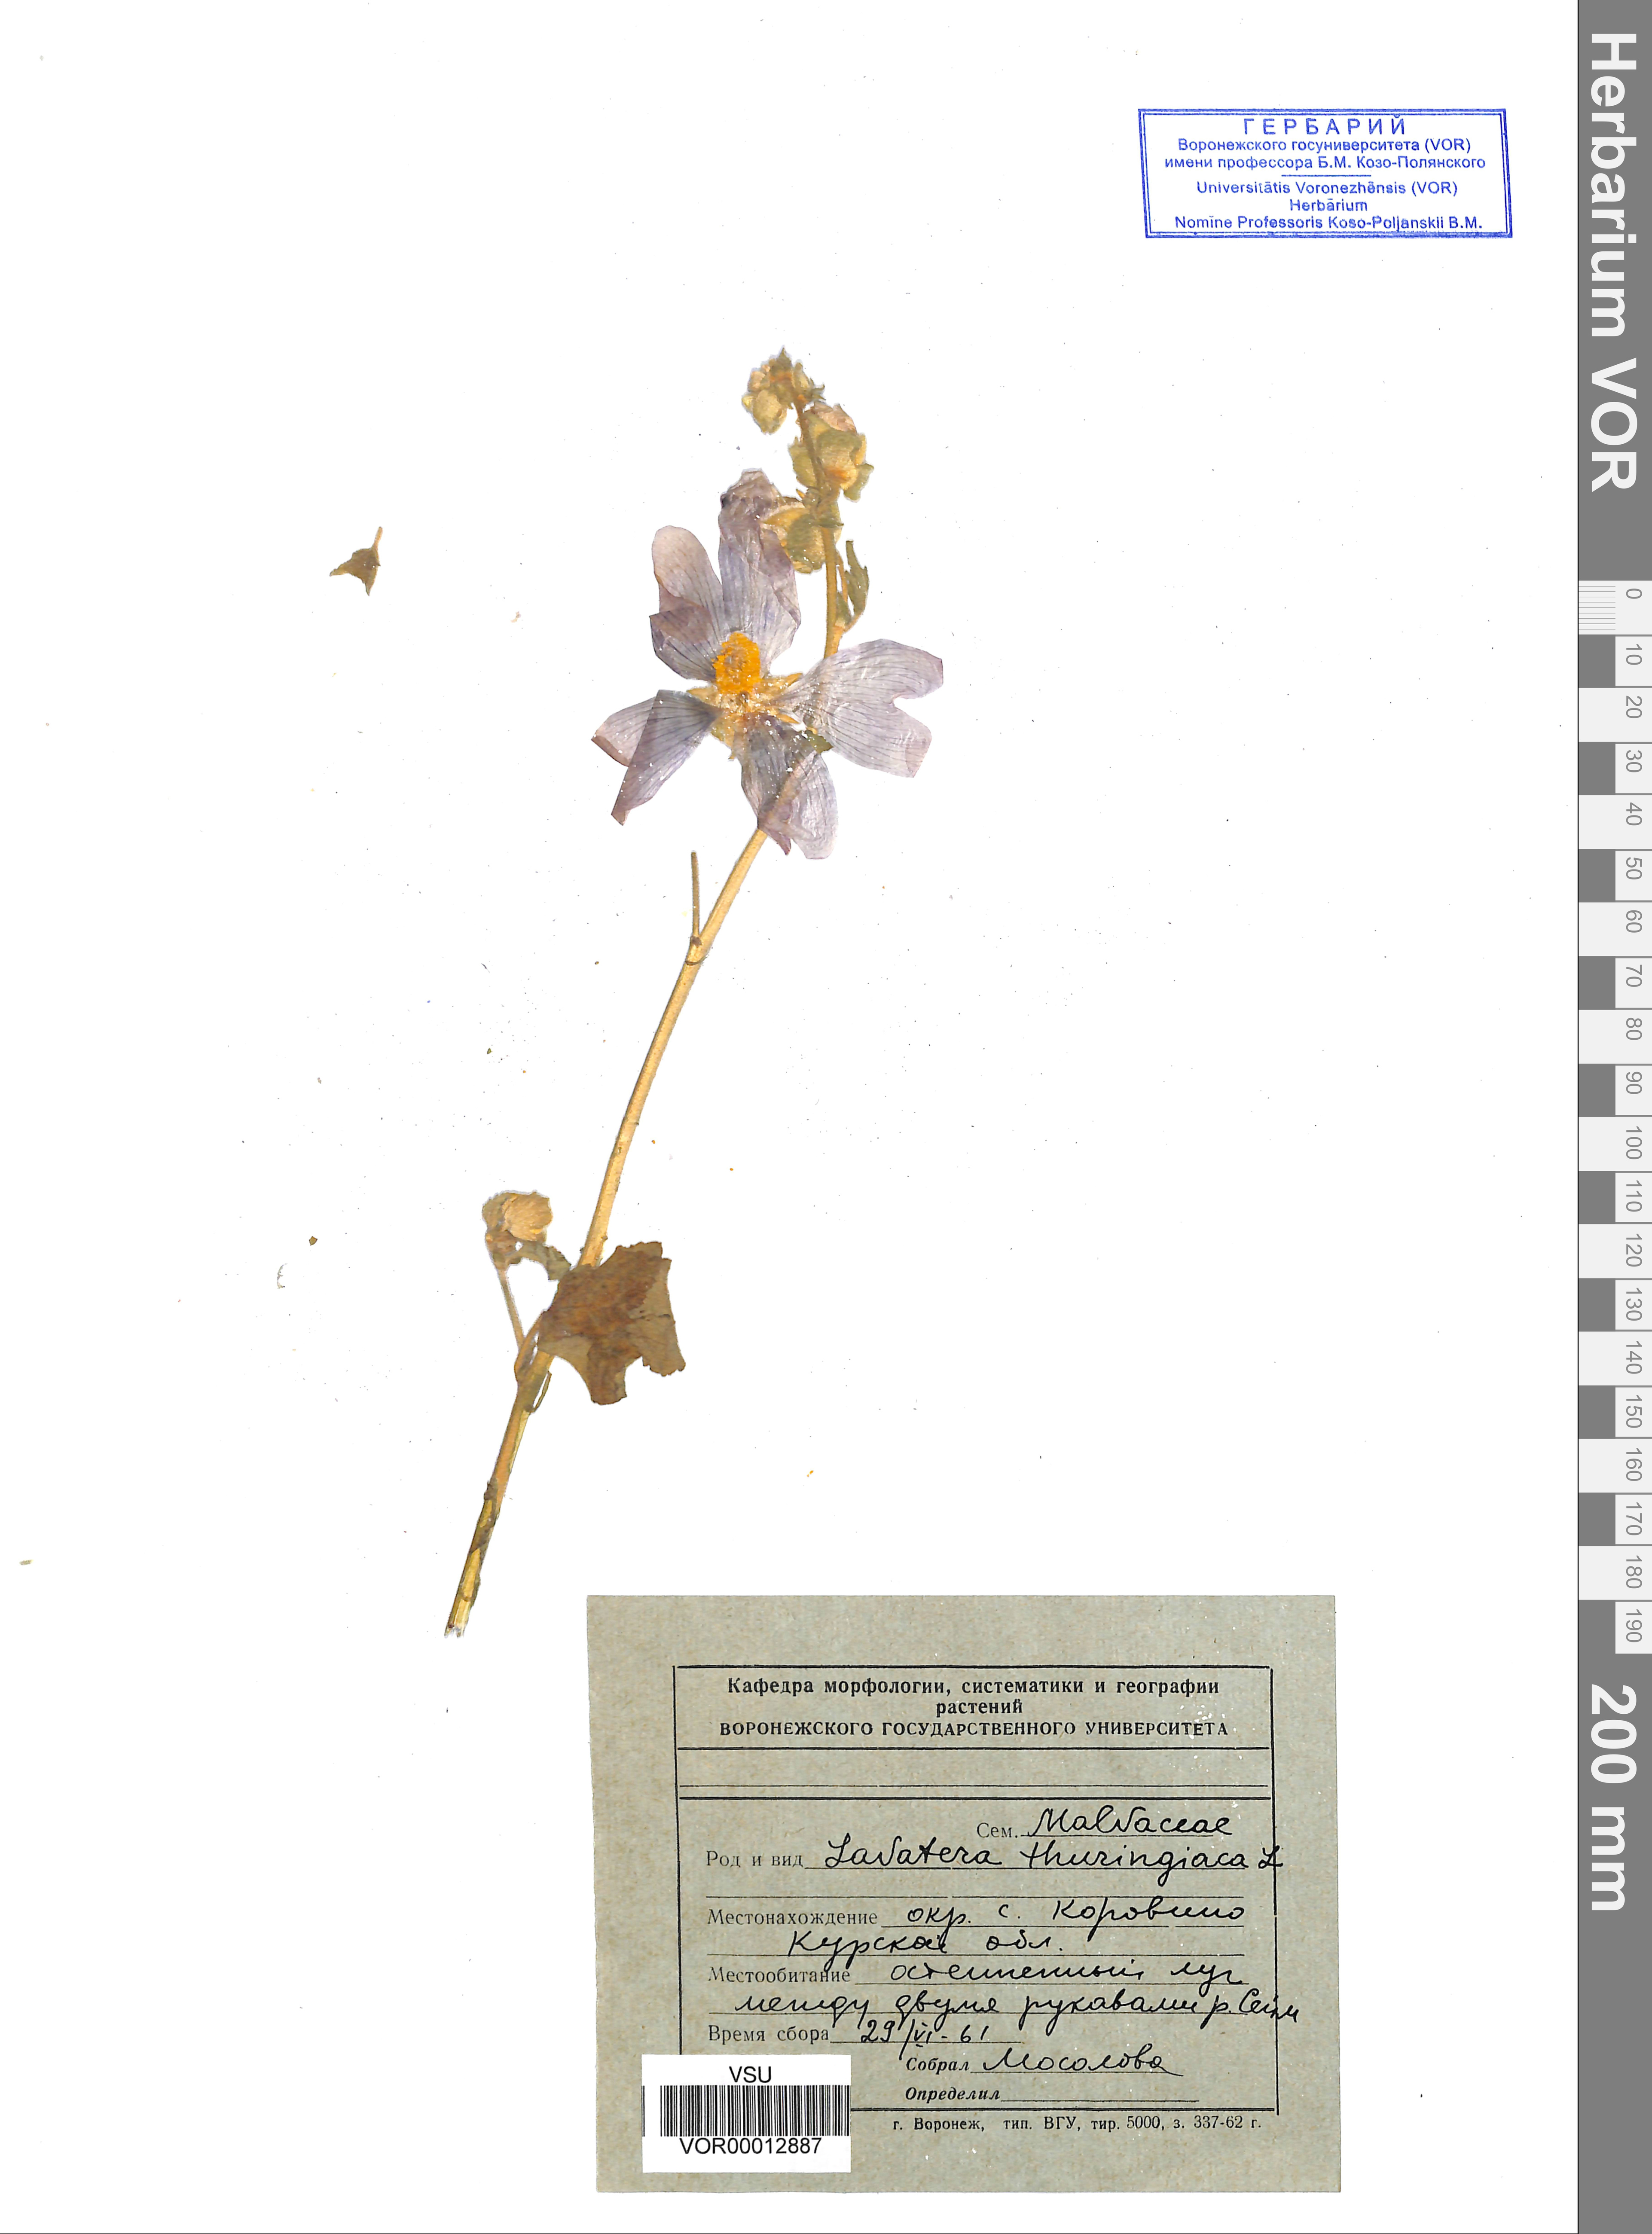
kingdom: Plantae
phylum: Tracheophyta
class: Magnoliopsida
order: Malvales
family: Malvaceae
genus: Malva
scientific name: Malva thuringiaca
